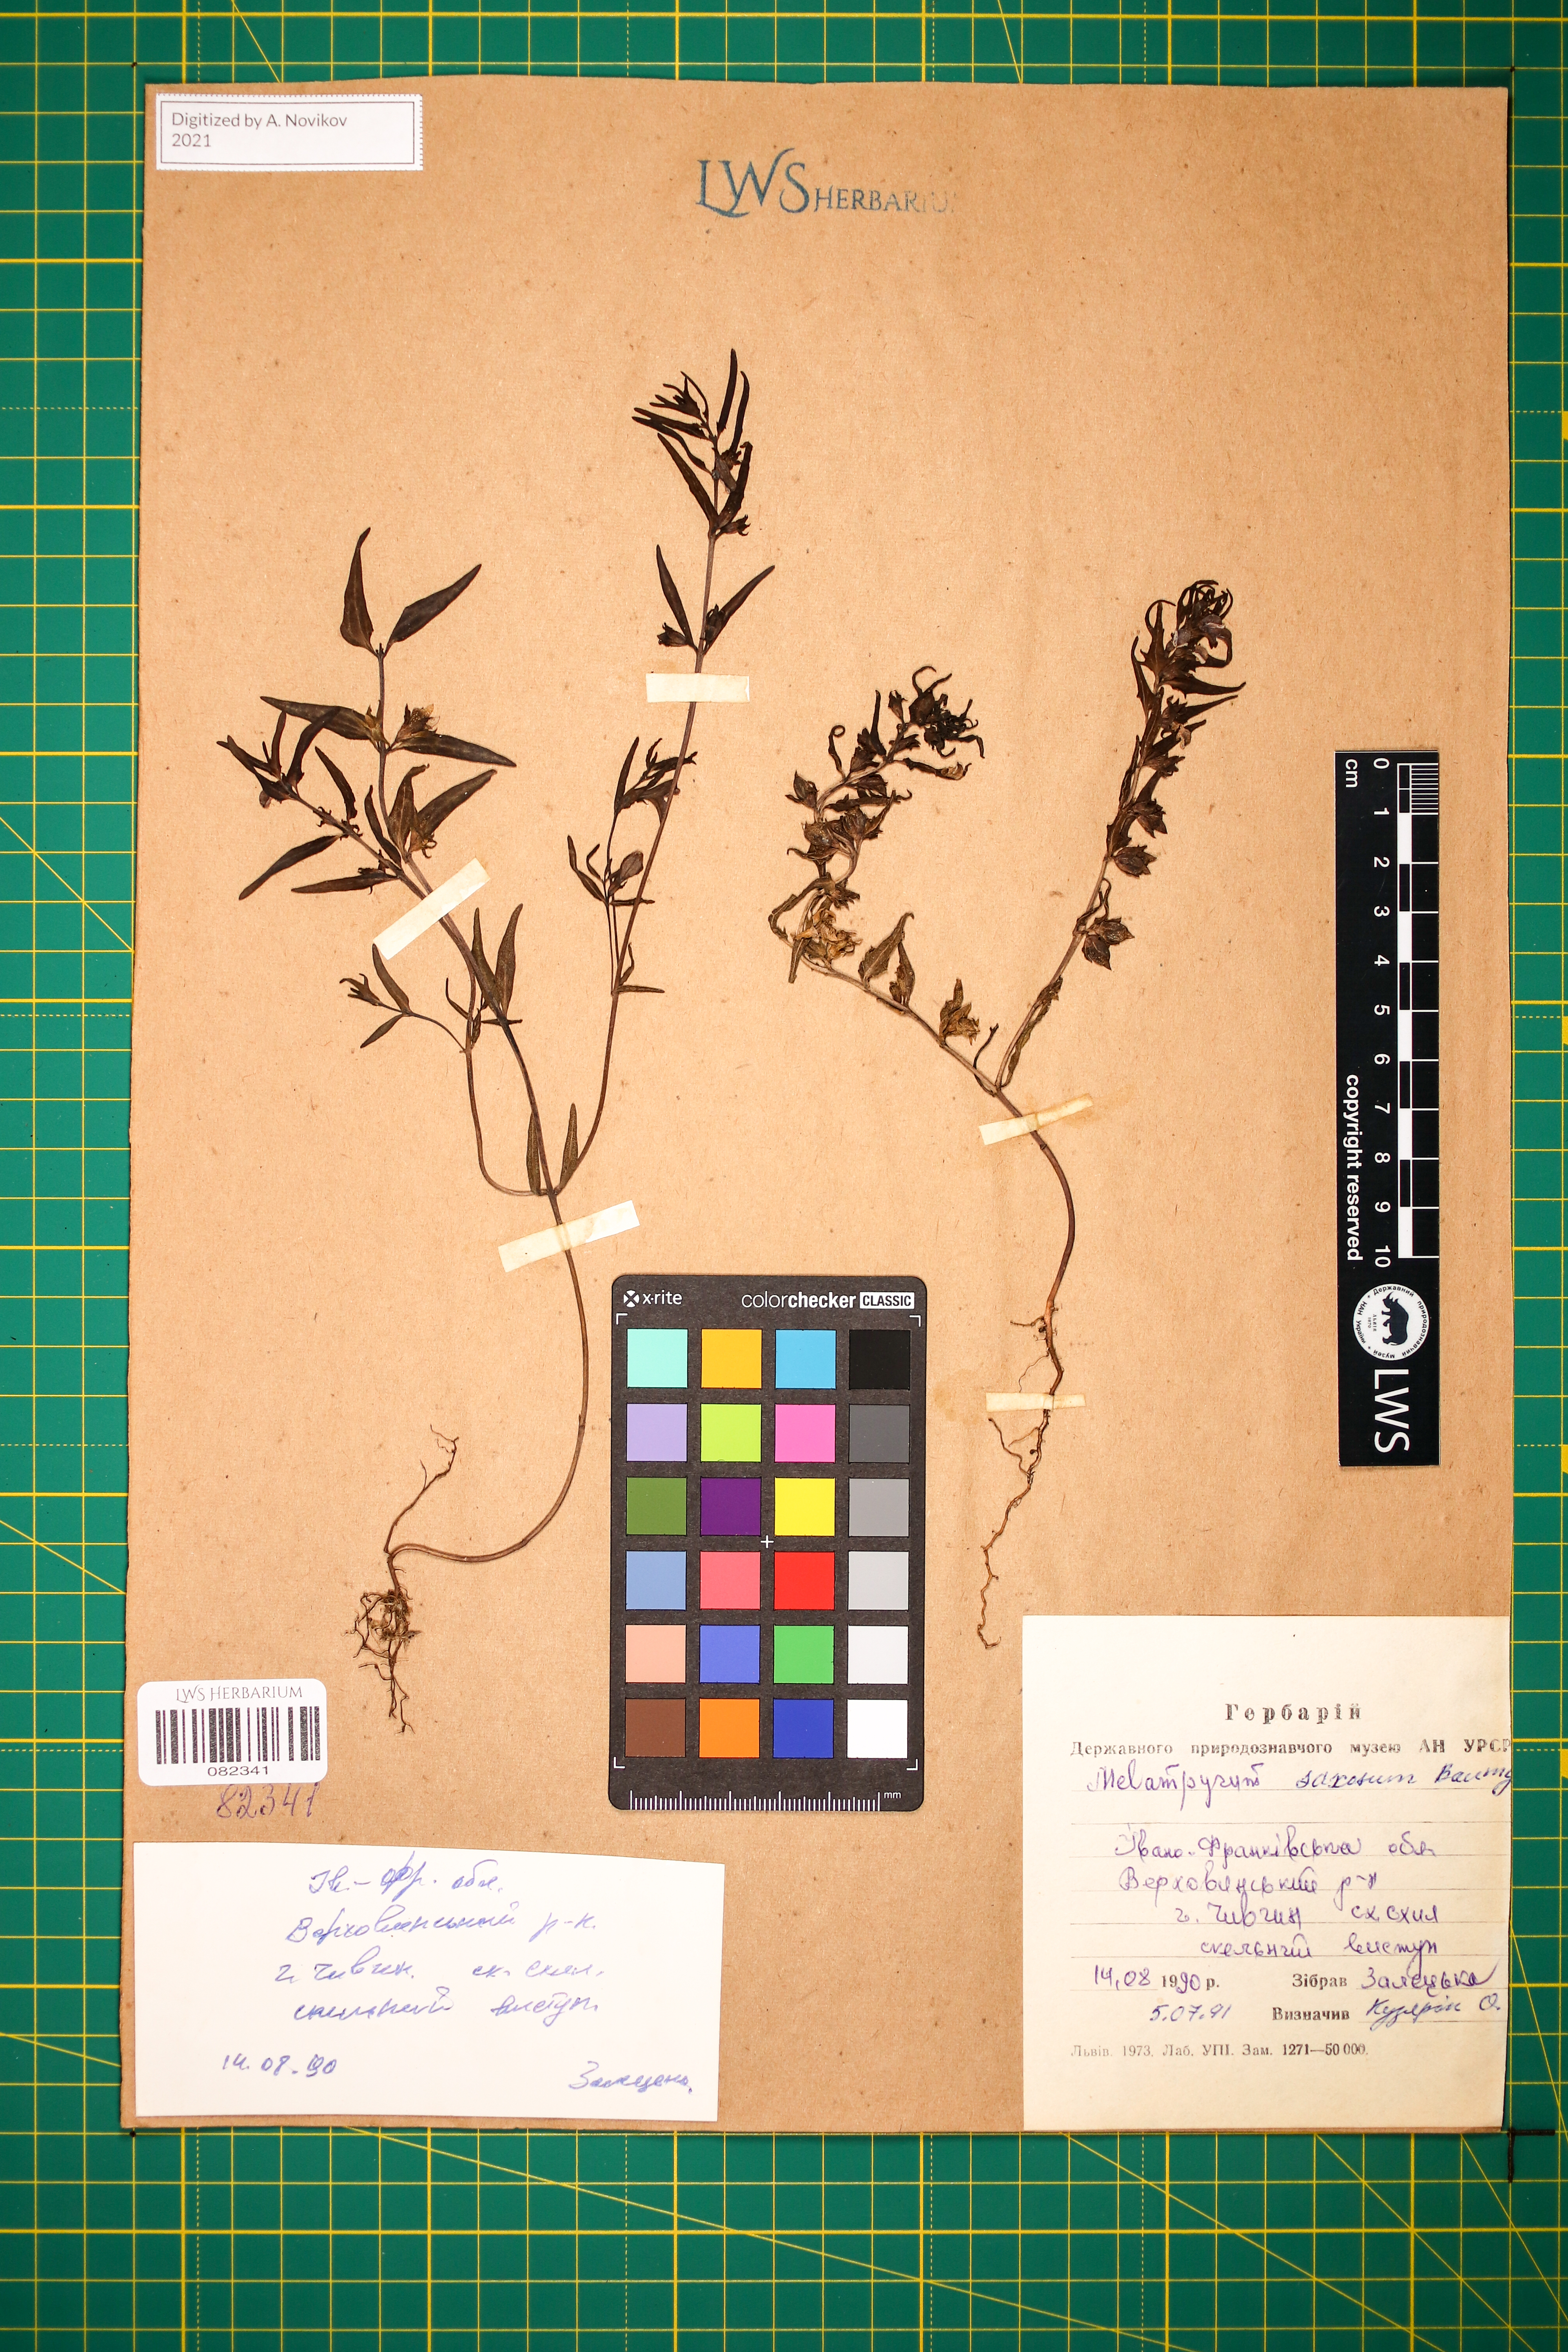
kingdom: Plantae
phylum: Tracheophyta
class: Magnoliopsida
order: Lamiales
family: Orobanchaceae
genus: Melampyrum
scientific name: Melampyrum saxosum
